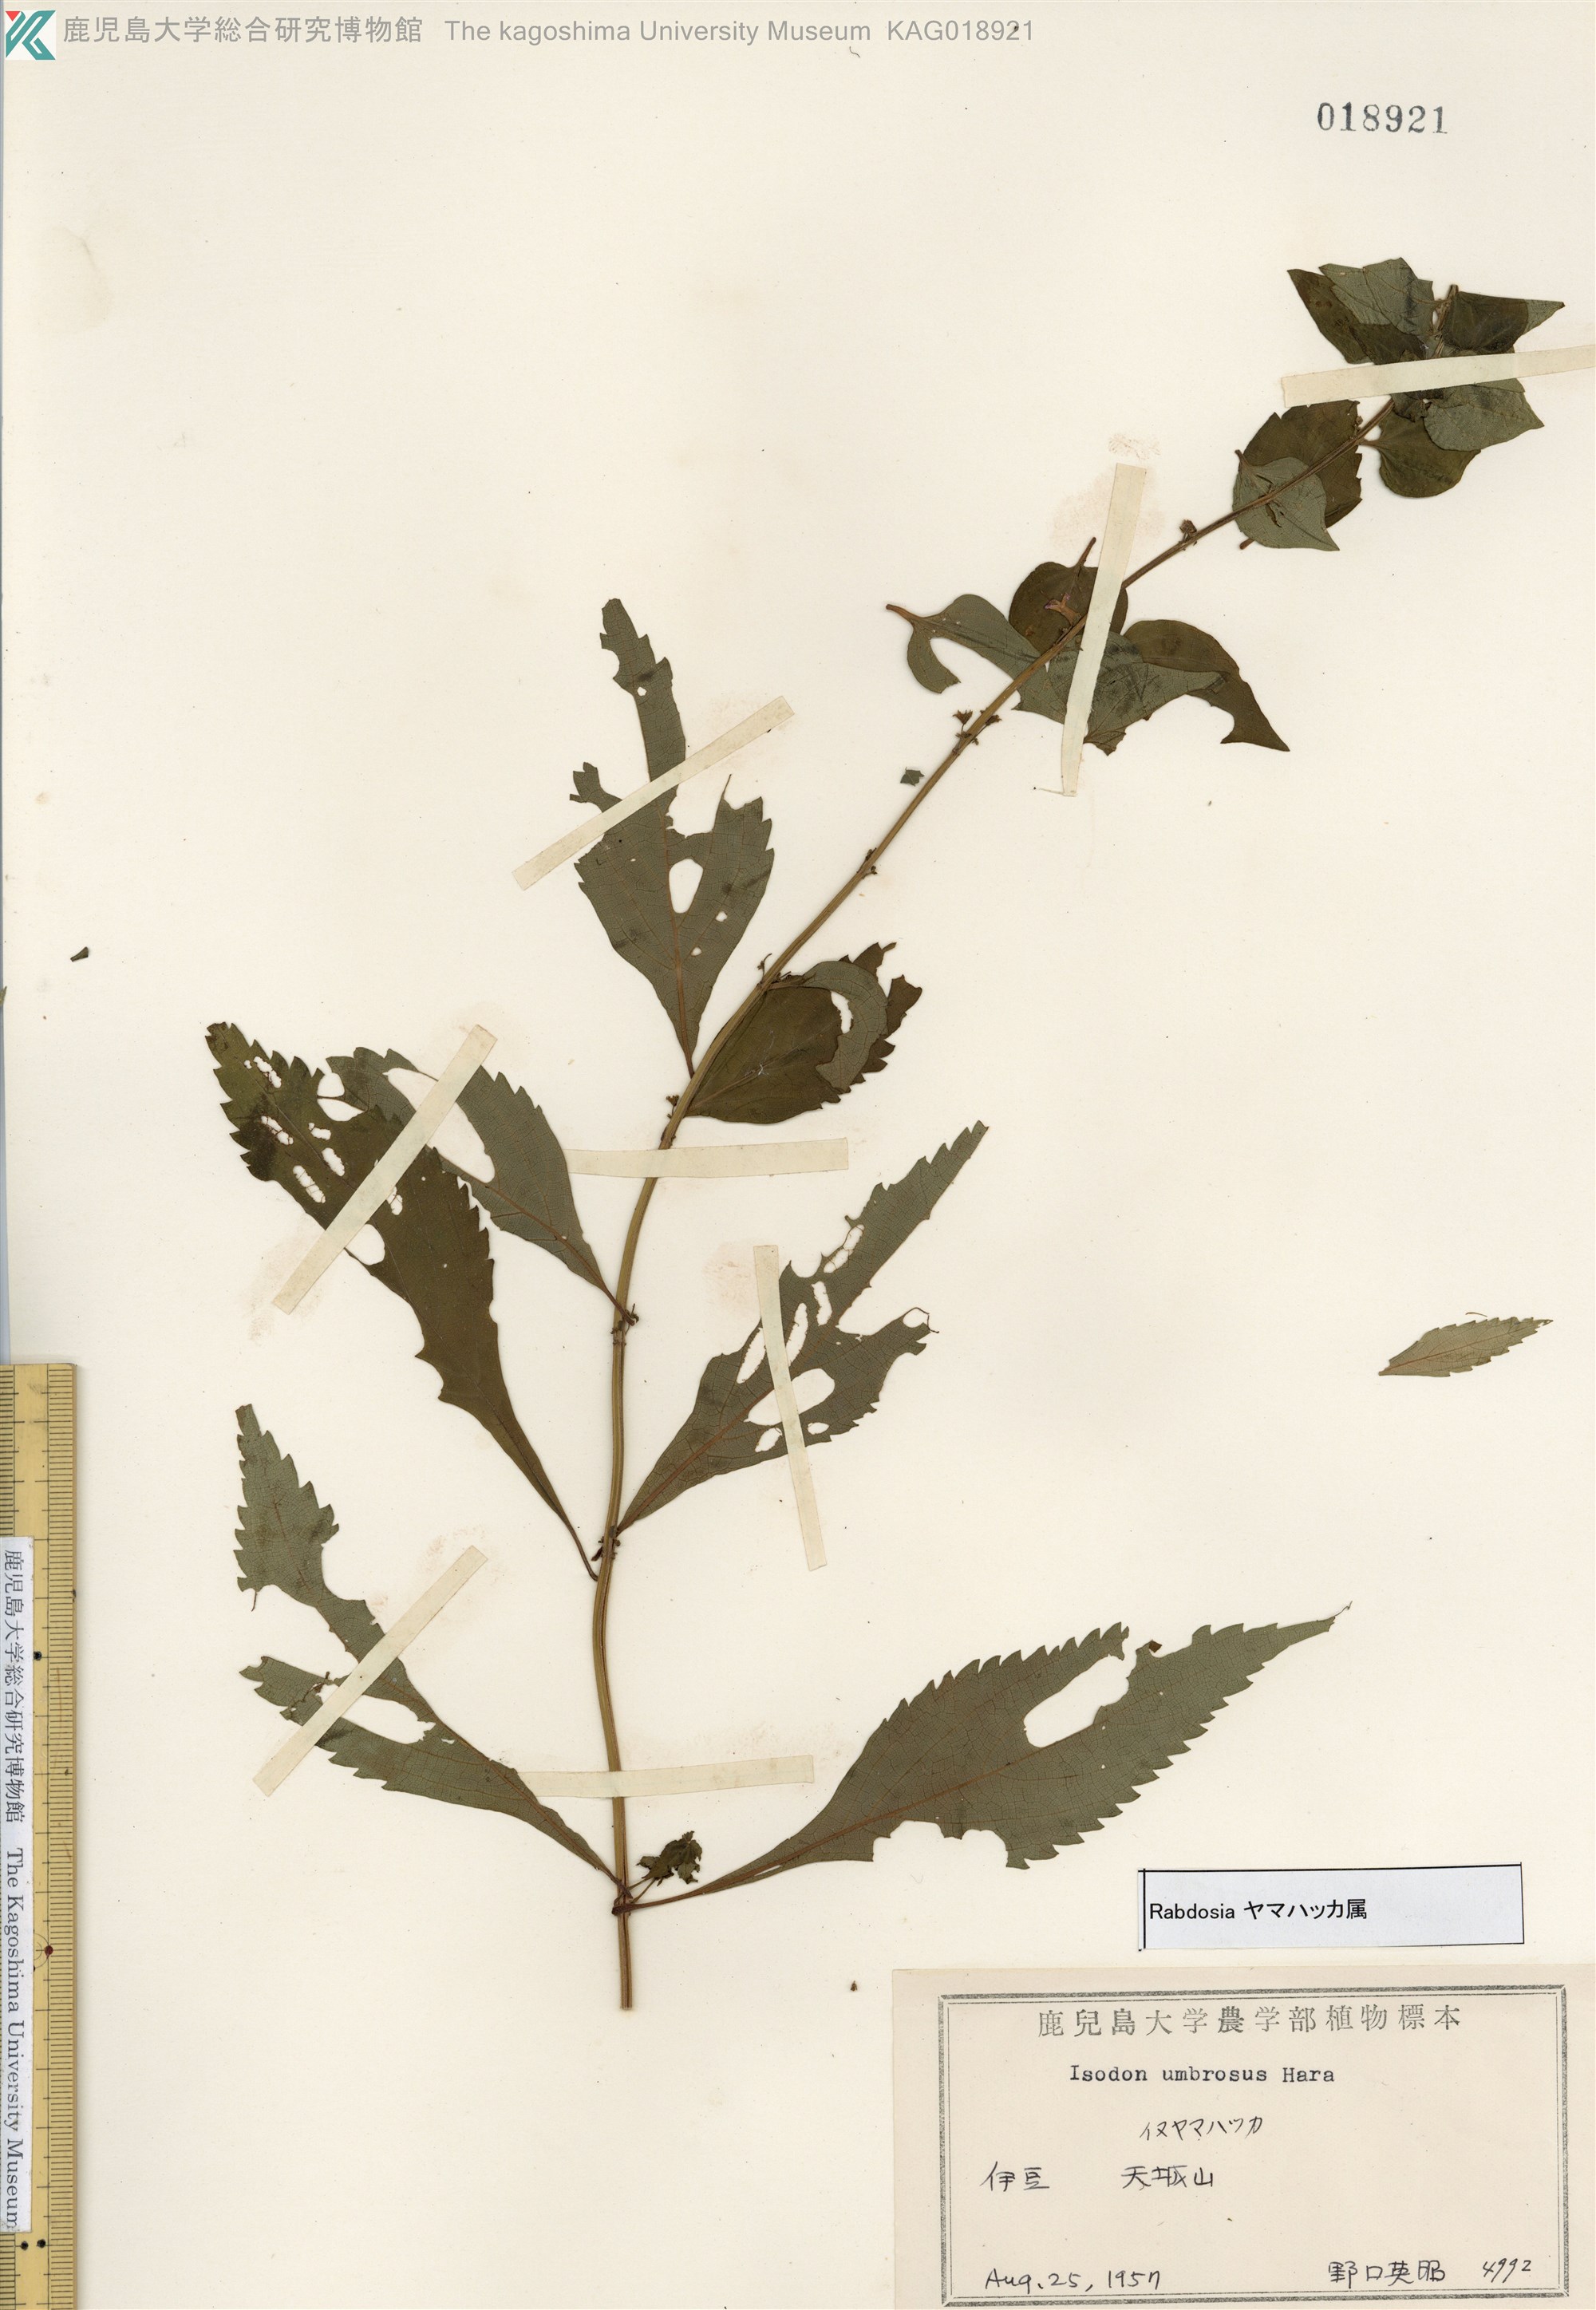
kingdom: Plantae
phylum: Tracheophyta
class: Magnoliopsida
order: Lamiales
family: Lamiaceae
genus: Isodon
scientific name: Isodon umbrosus
